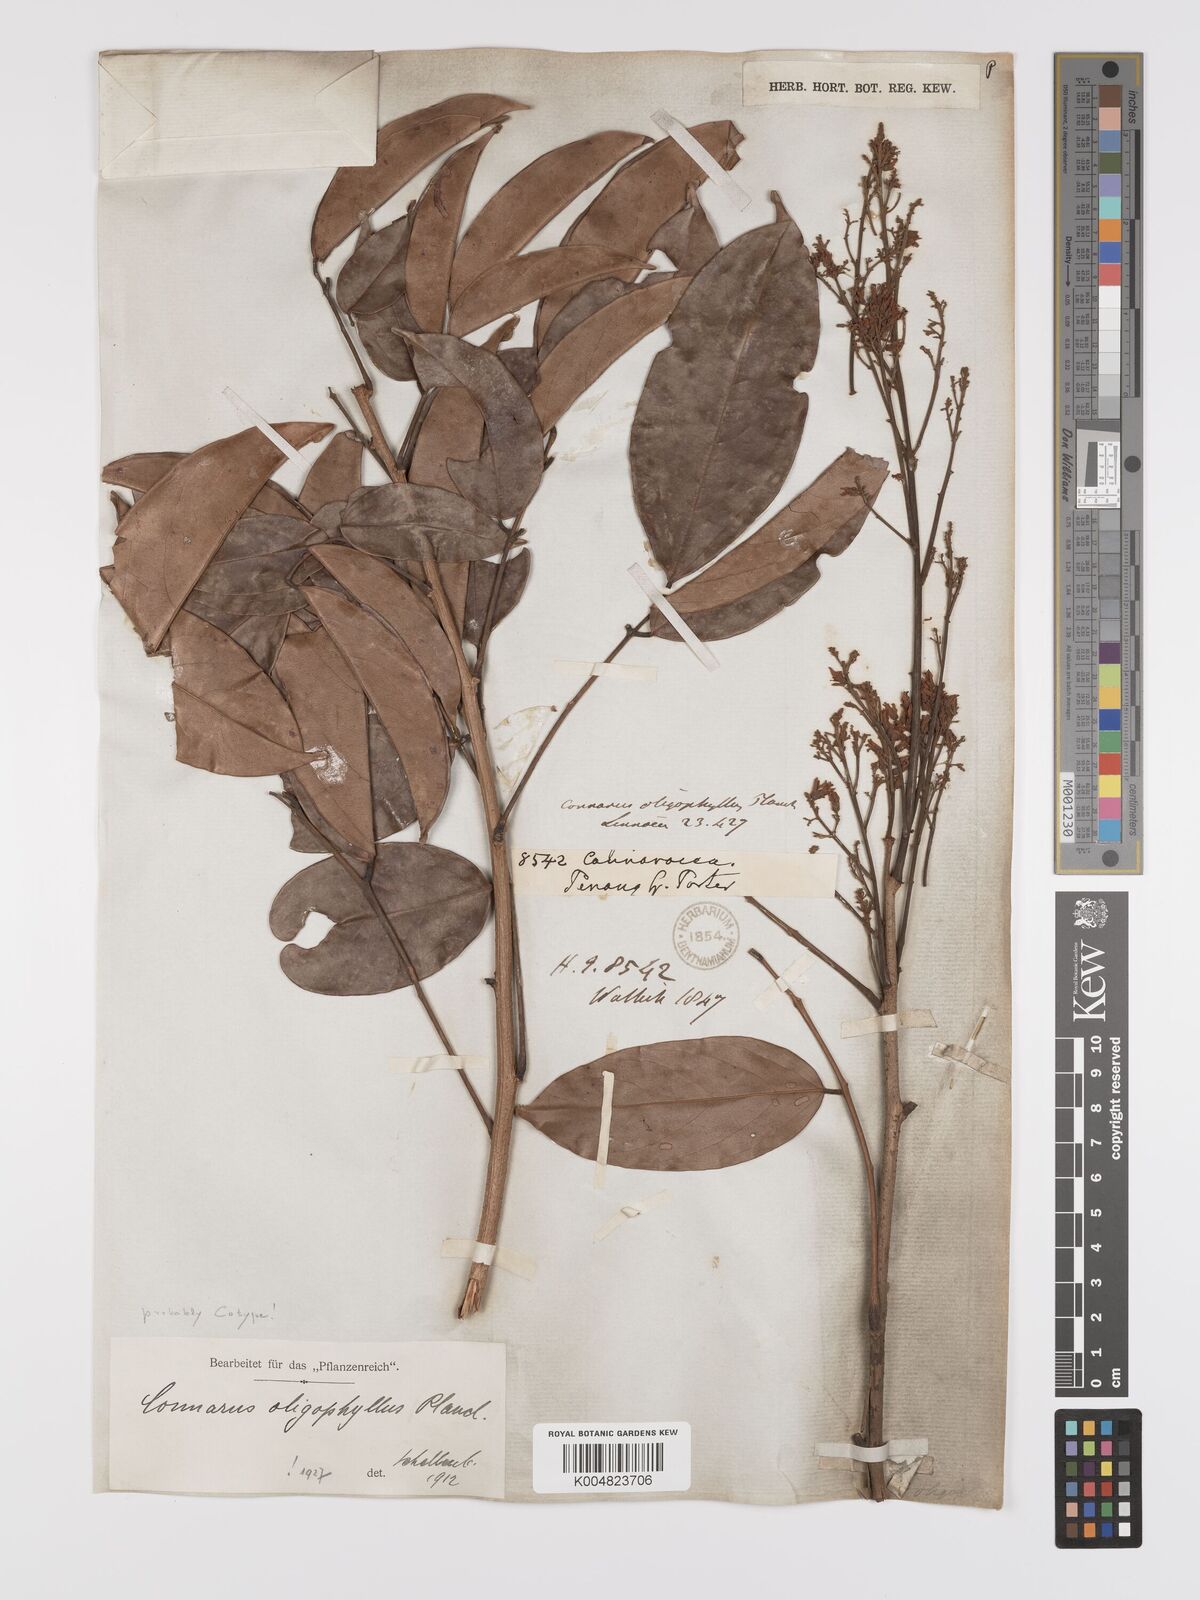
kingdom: Plantae
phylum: Tracheophyta
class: Magnoliopsida
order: Oxalidales
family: Connaraceae
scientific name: Connaraceae
